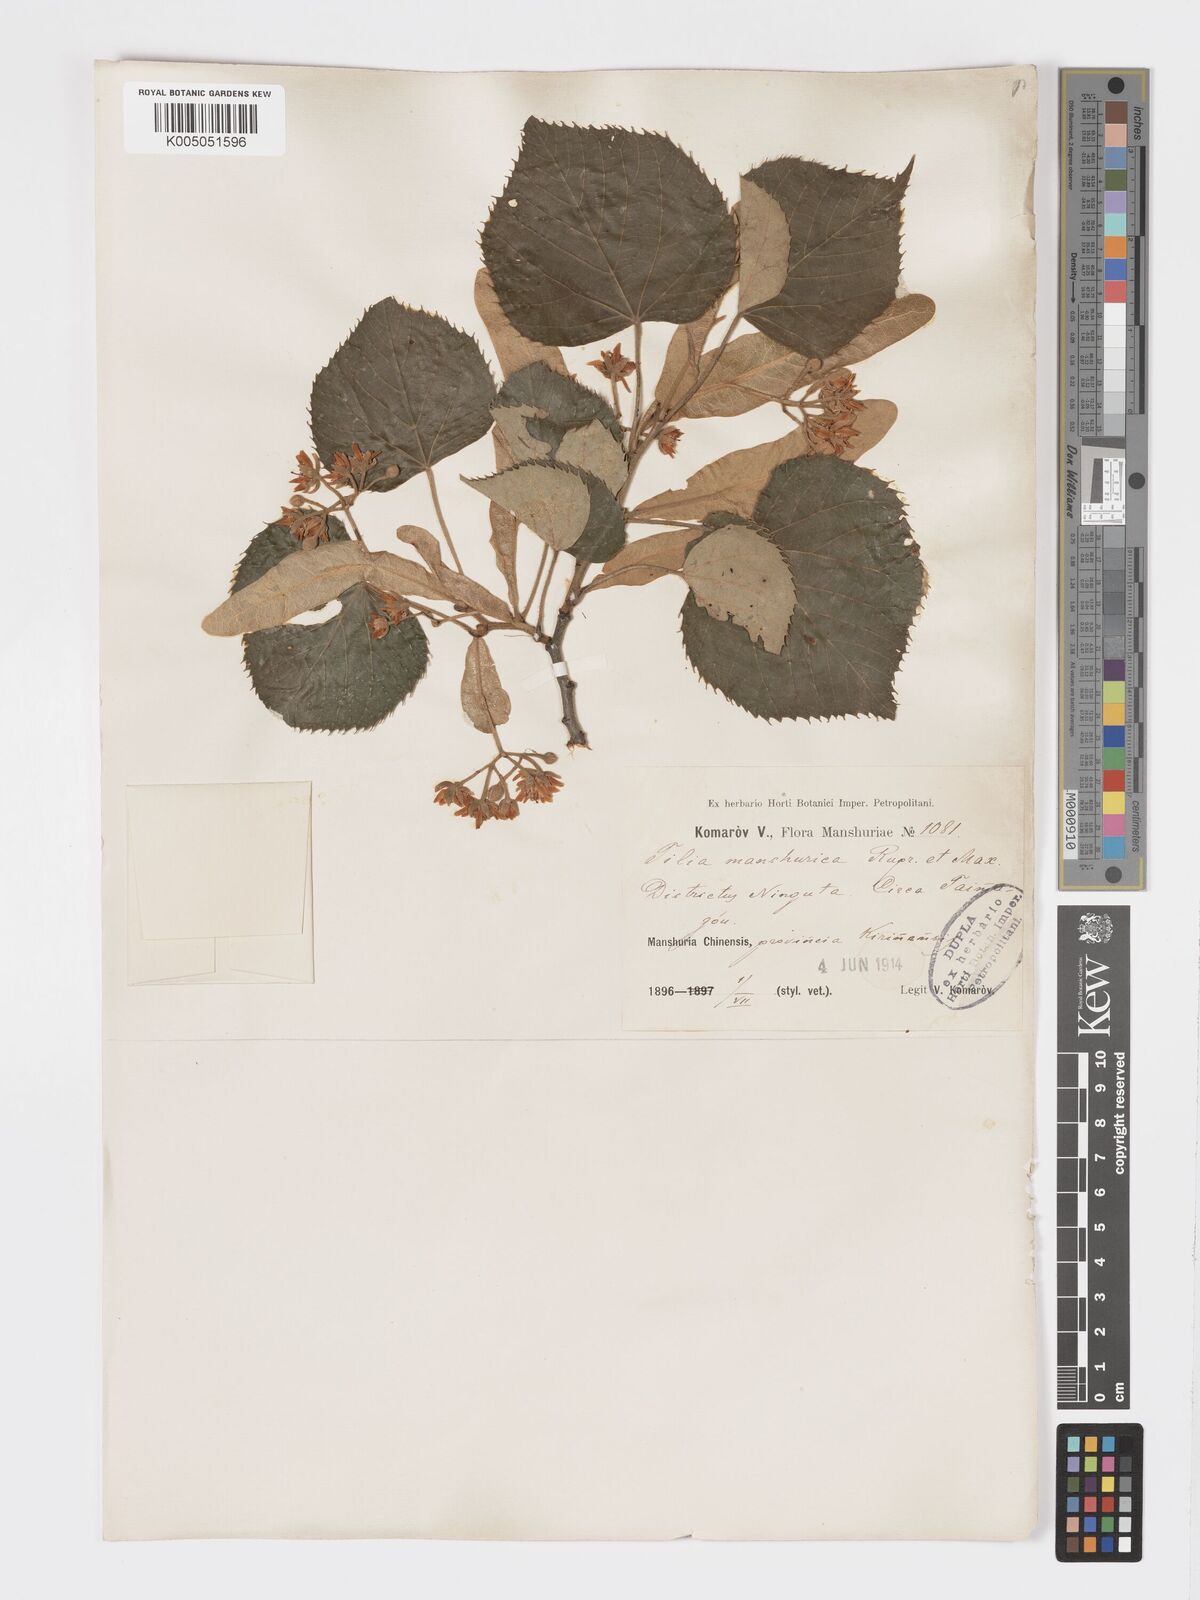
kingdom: Plantae
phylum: Tracheophyta
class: Magnoliopsida
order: Malvales
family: Malvaceae
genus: Tilia
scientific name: Tilia mandshurica
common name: Manchurian linden
